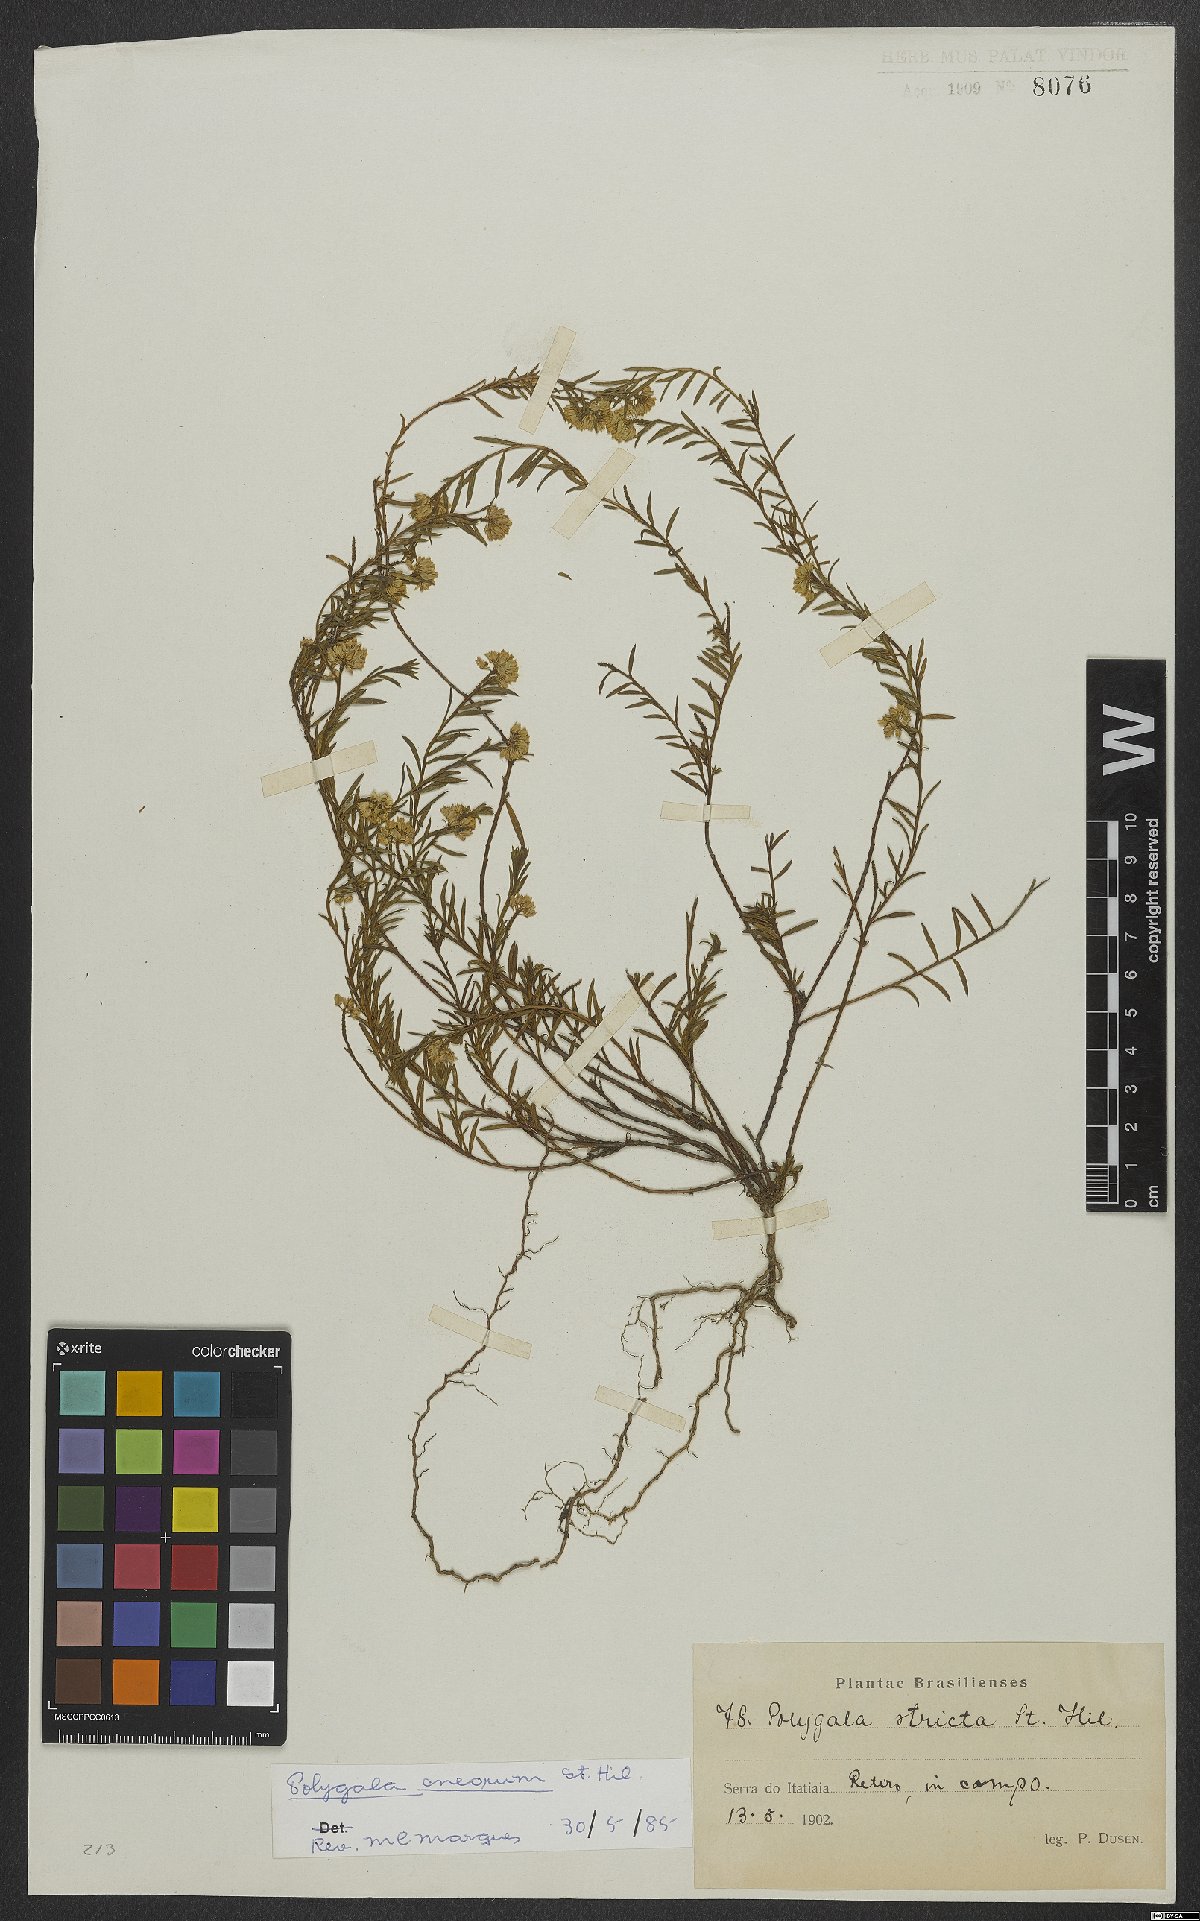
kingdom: Plantae
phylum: Tracheophyta
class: Magnoliopsida
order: Fabales
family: Polygalaceae
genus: Polygala
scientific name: Polygala cneorum
